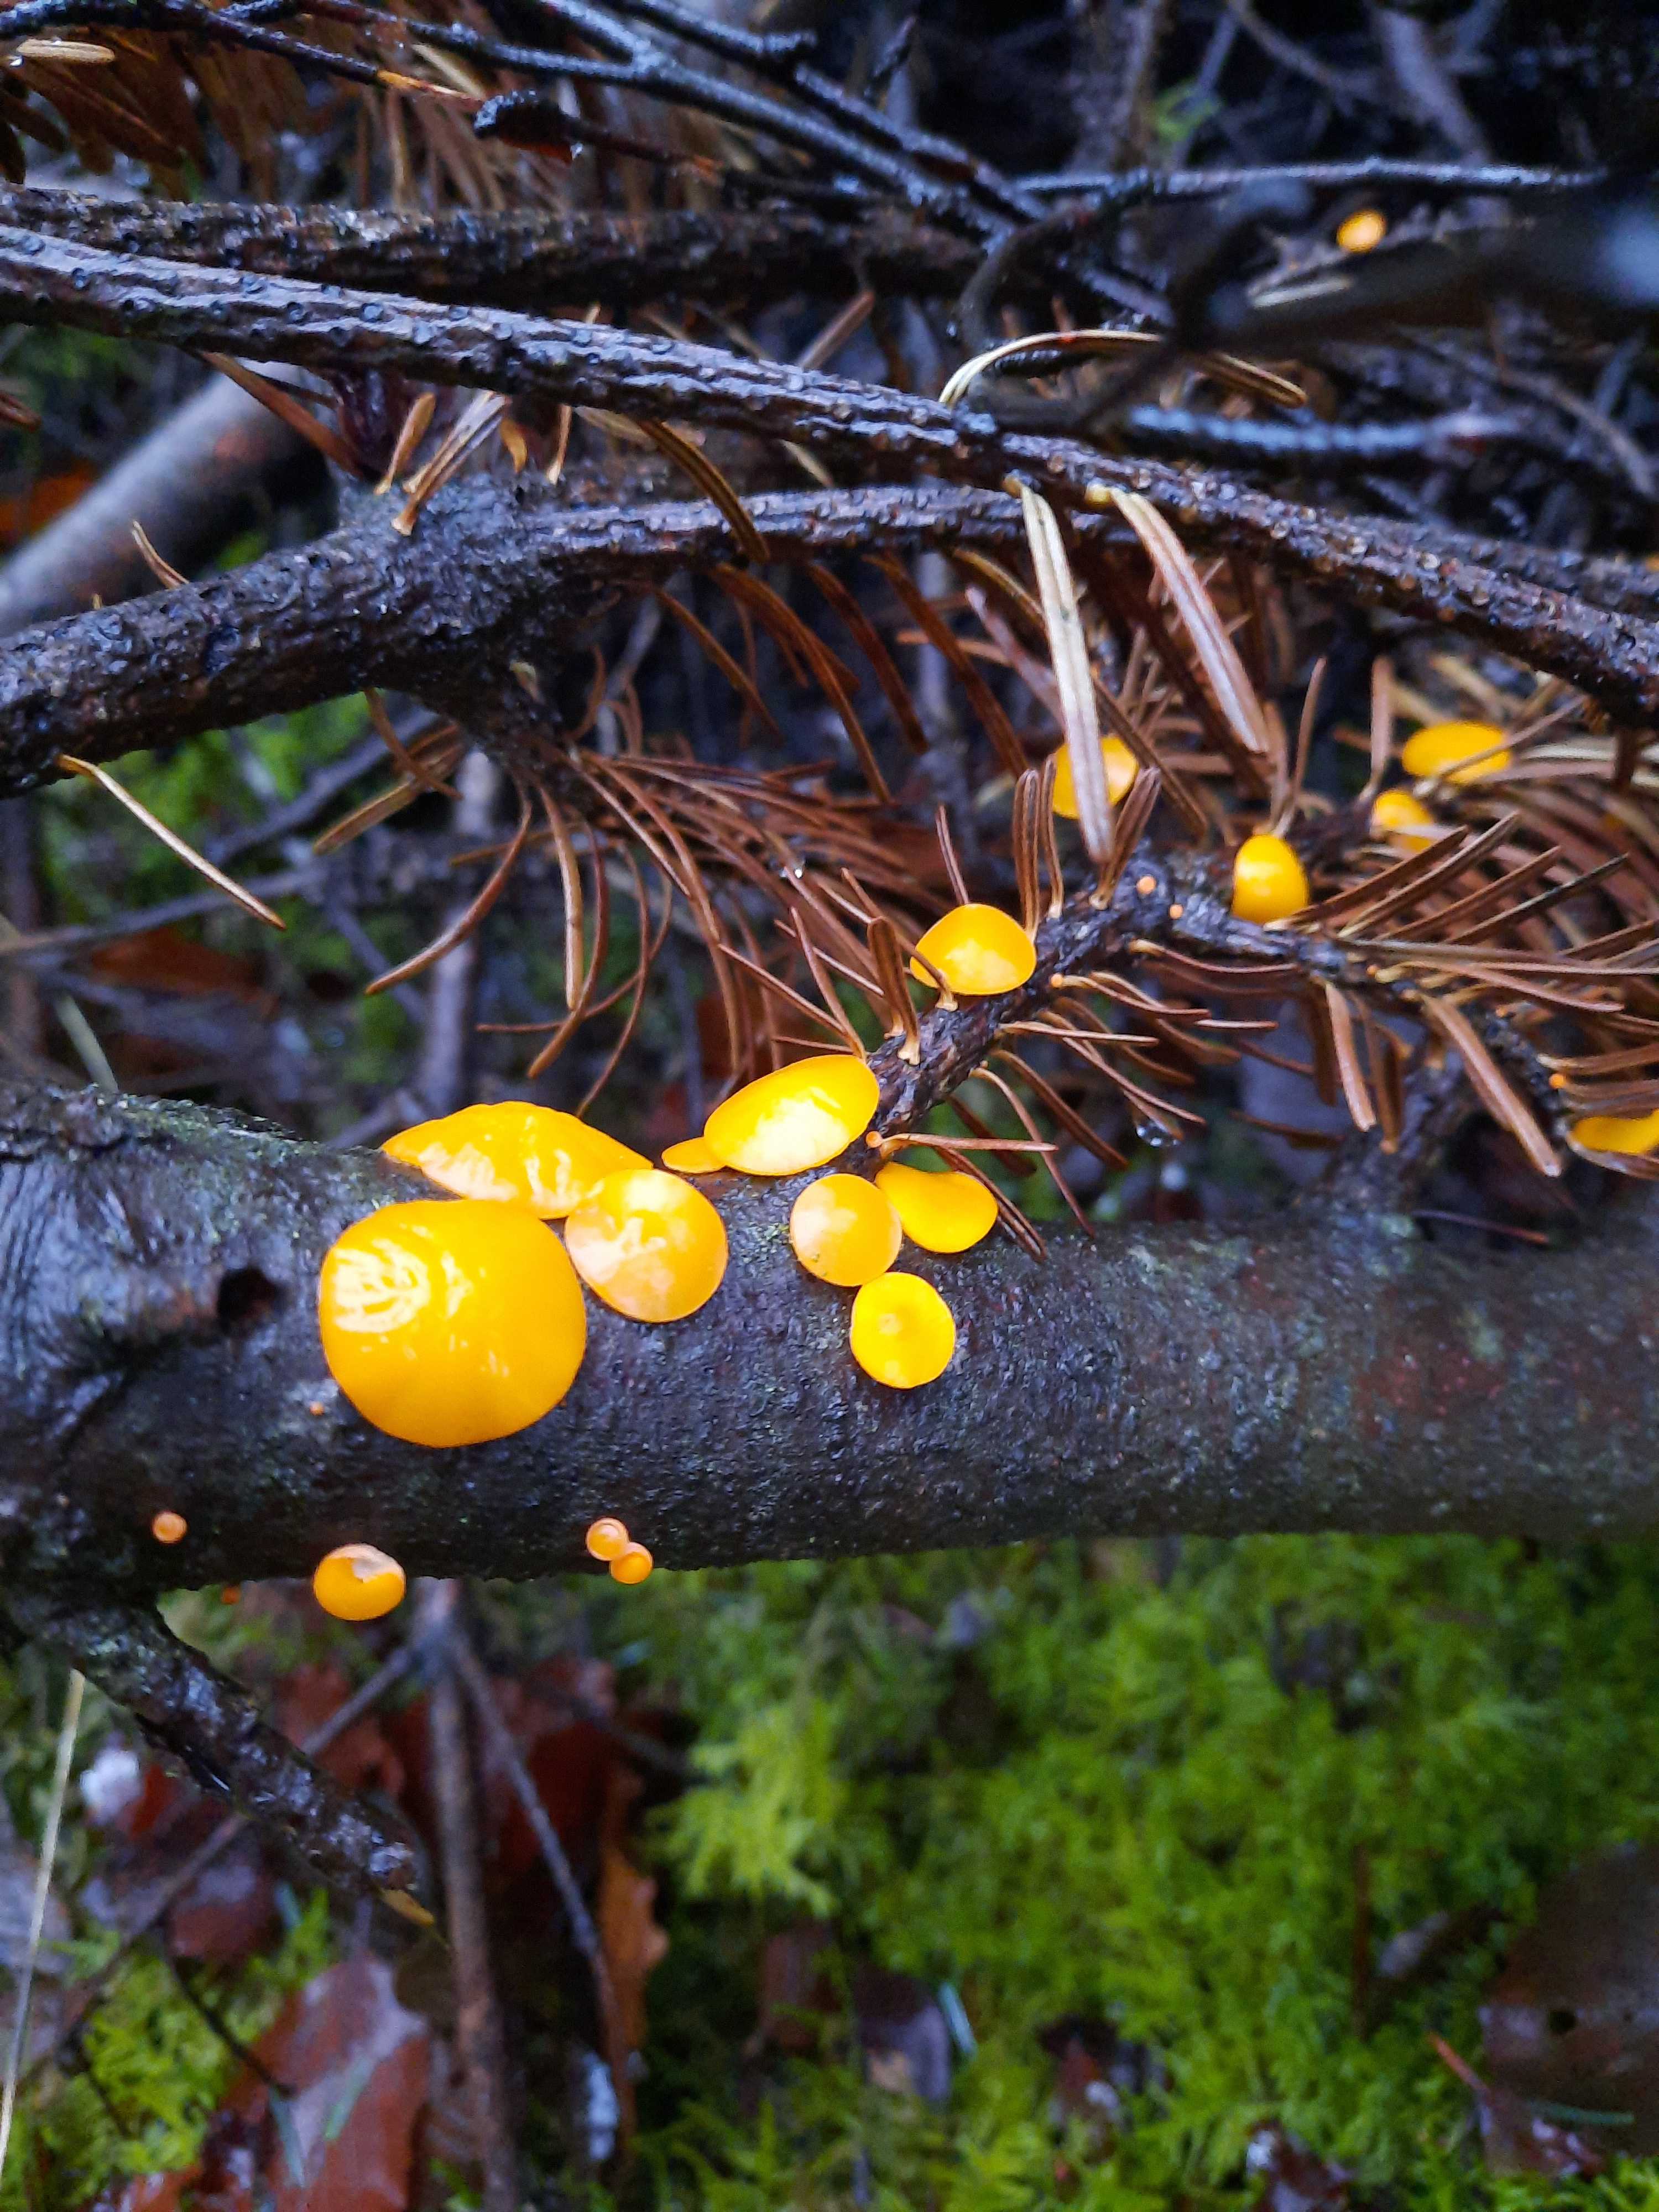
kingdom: Fungi
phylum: Ascomycota
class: Pezizomycetes
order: Pezizales
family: Sarcoscyphaceae
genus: Pithya
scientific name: Pithya vulgaris
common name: stor dukatbæger
